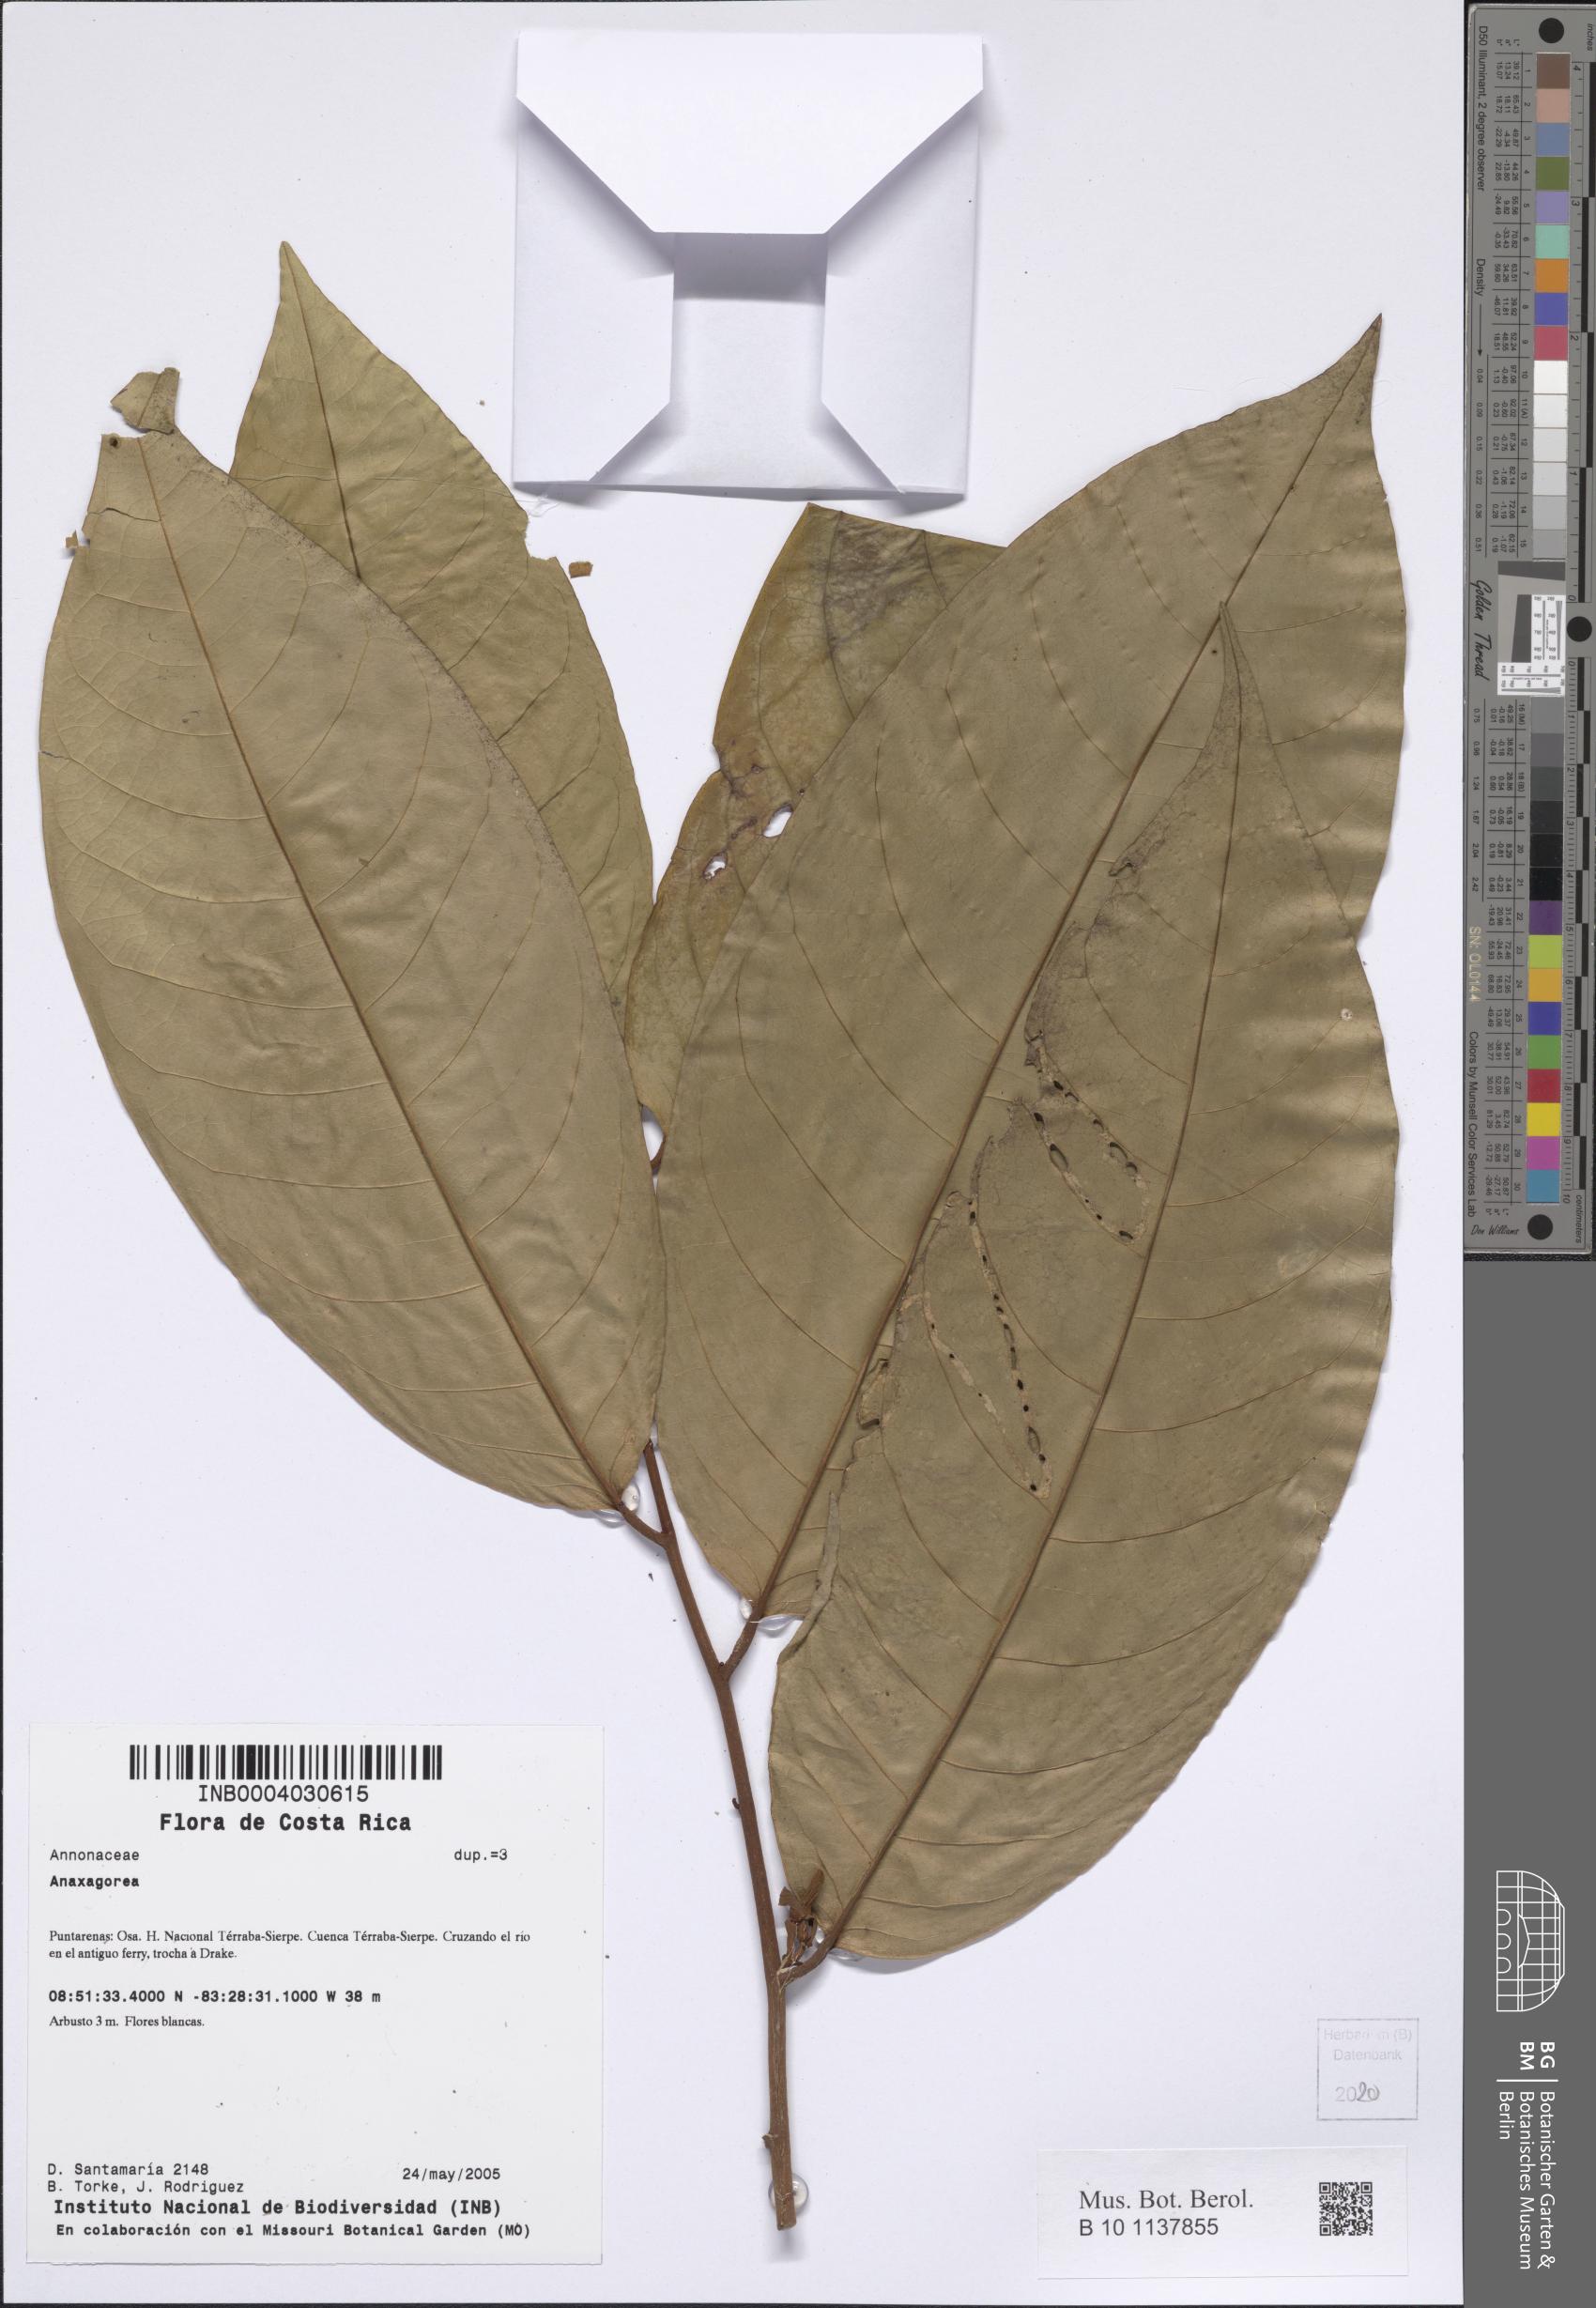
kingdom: Plantae
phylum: Tracheophyta
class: Magnoliopsida
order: Magnoliales
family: Annonaceae
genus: Anaxagorea
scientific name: Anaxagorea
